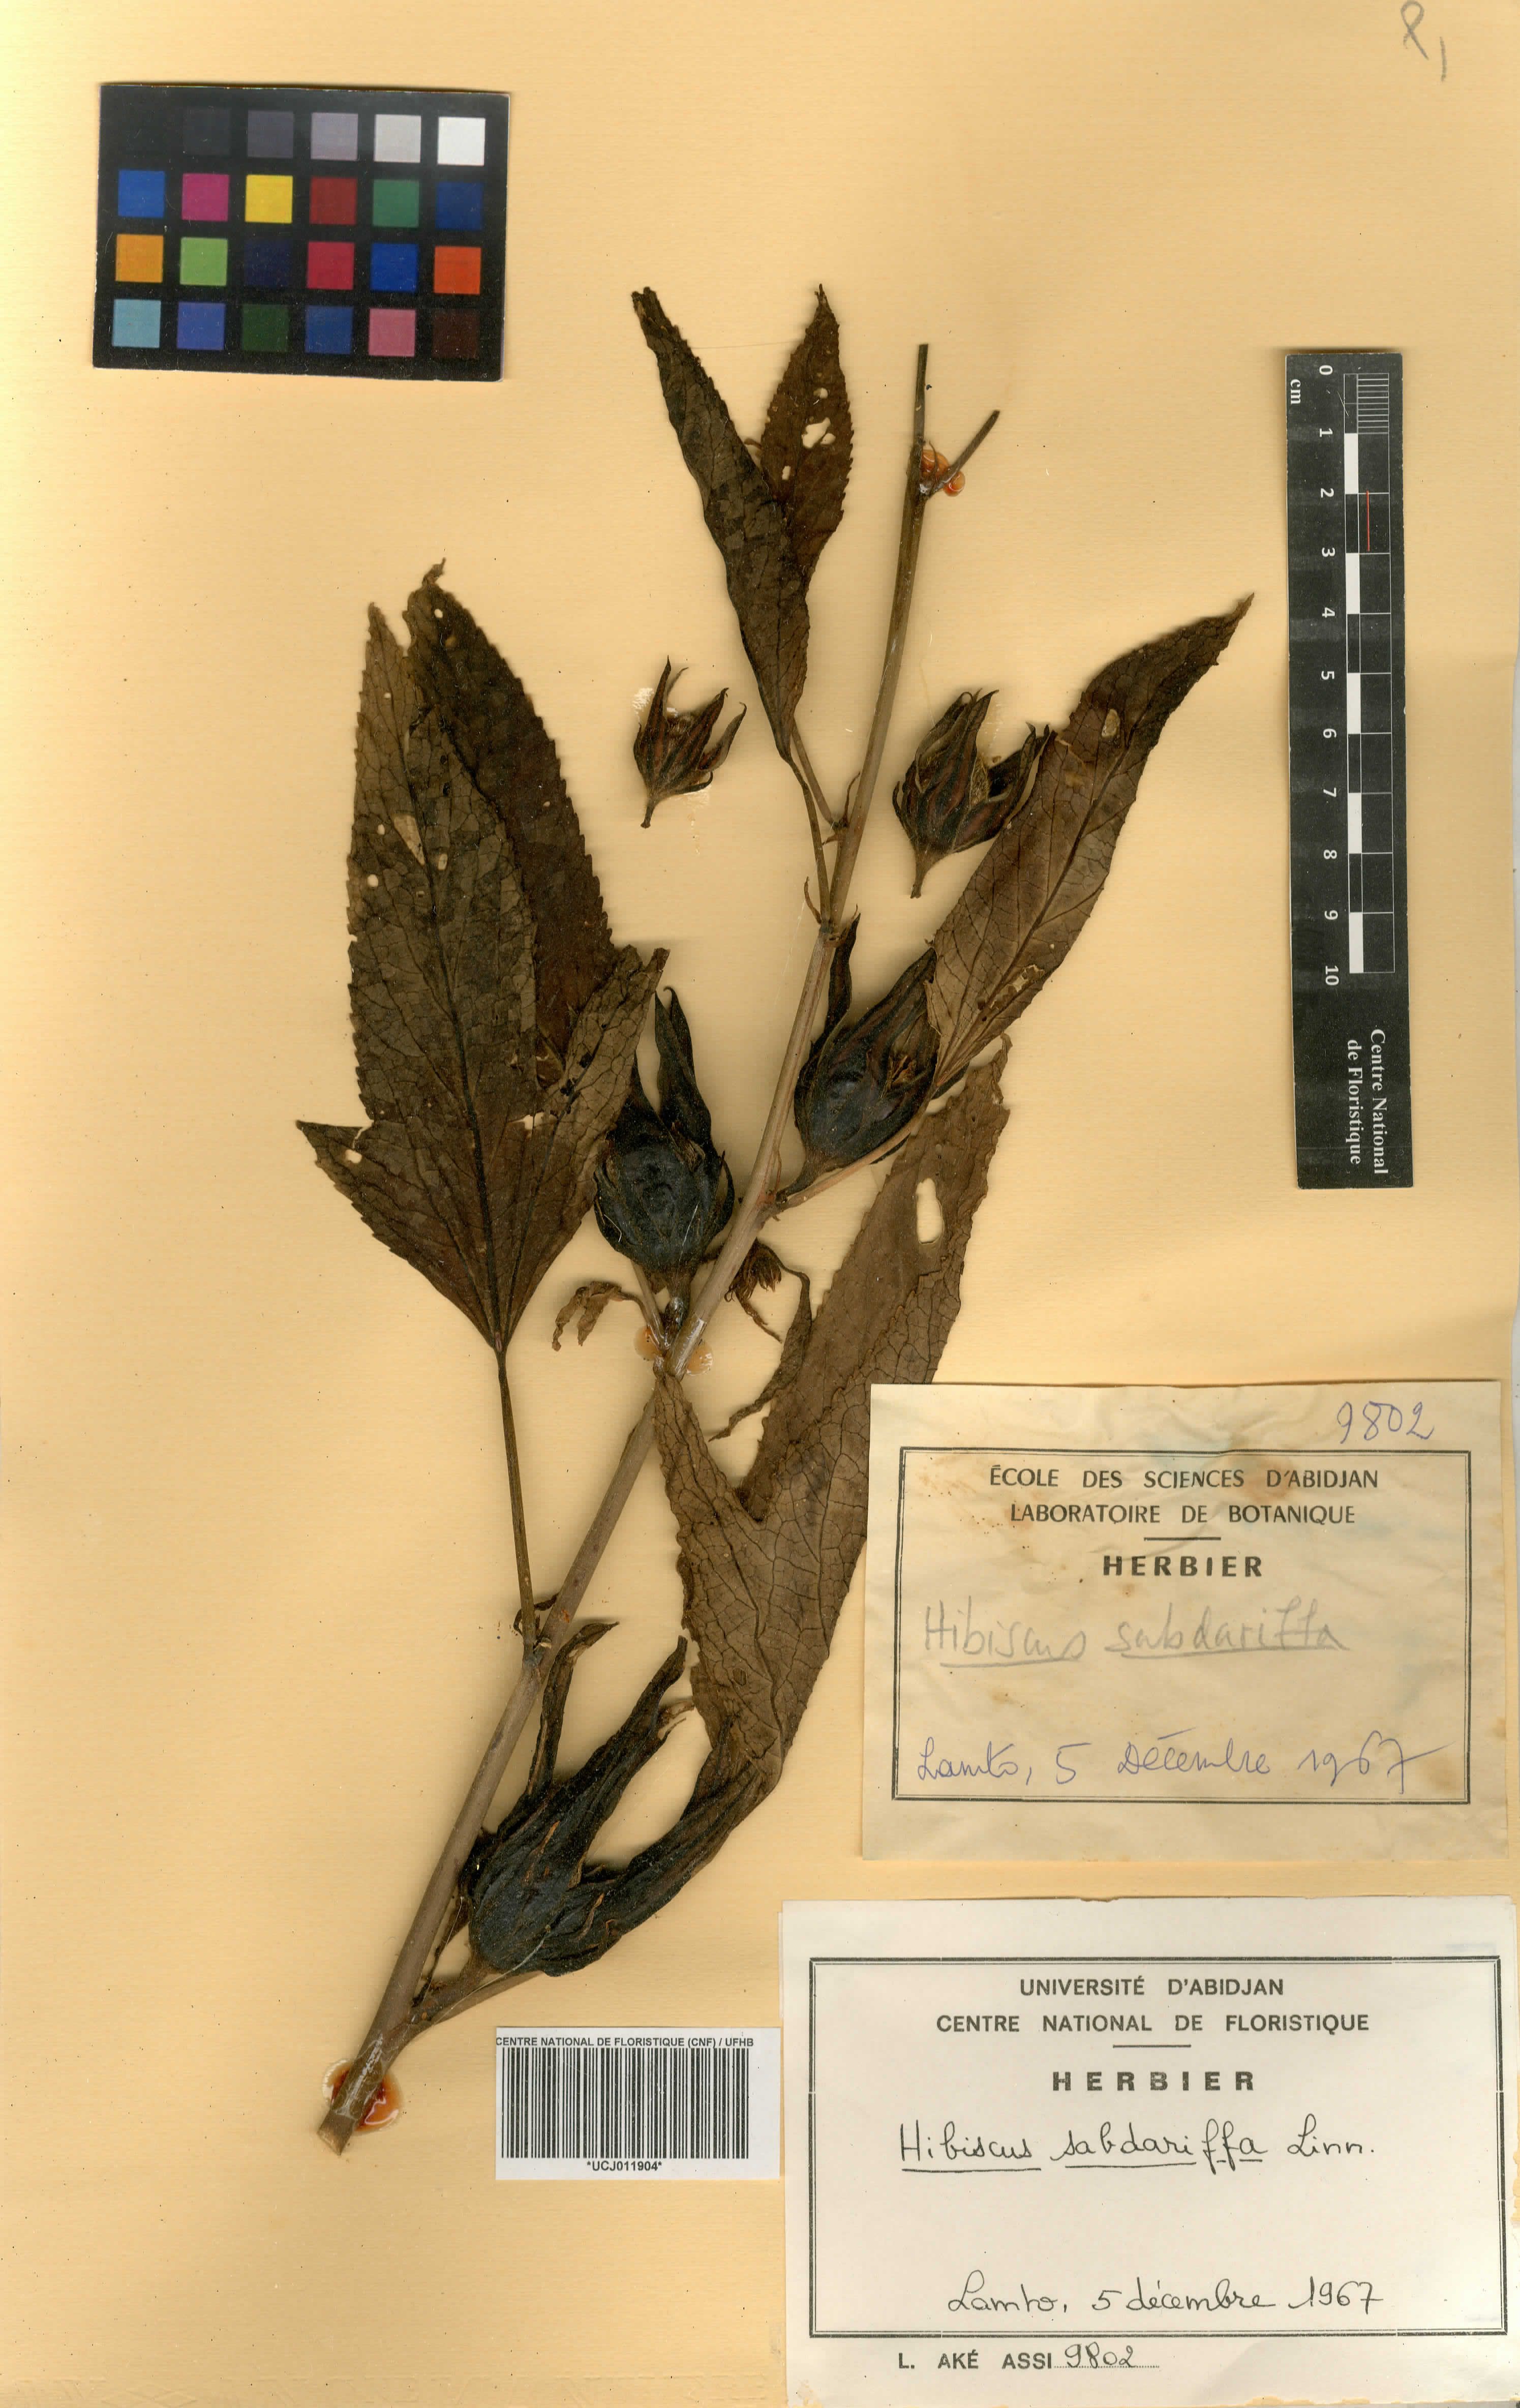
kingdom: Plantae
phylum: Tracheophyta
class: Magnoliopsida
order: Malvales
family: Malvaceae
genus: Hibiscus
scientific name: Hibiscus sabdariffa
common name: Roselle
